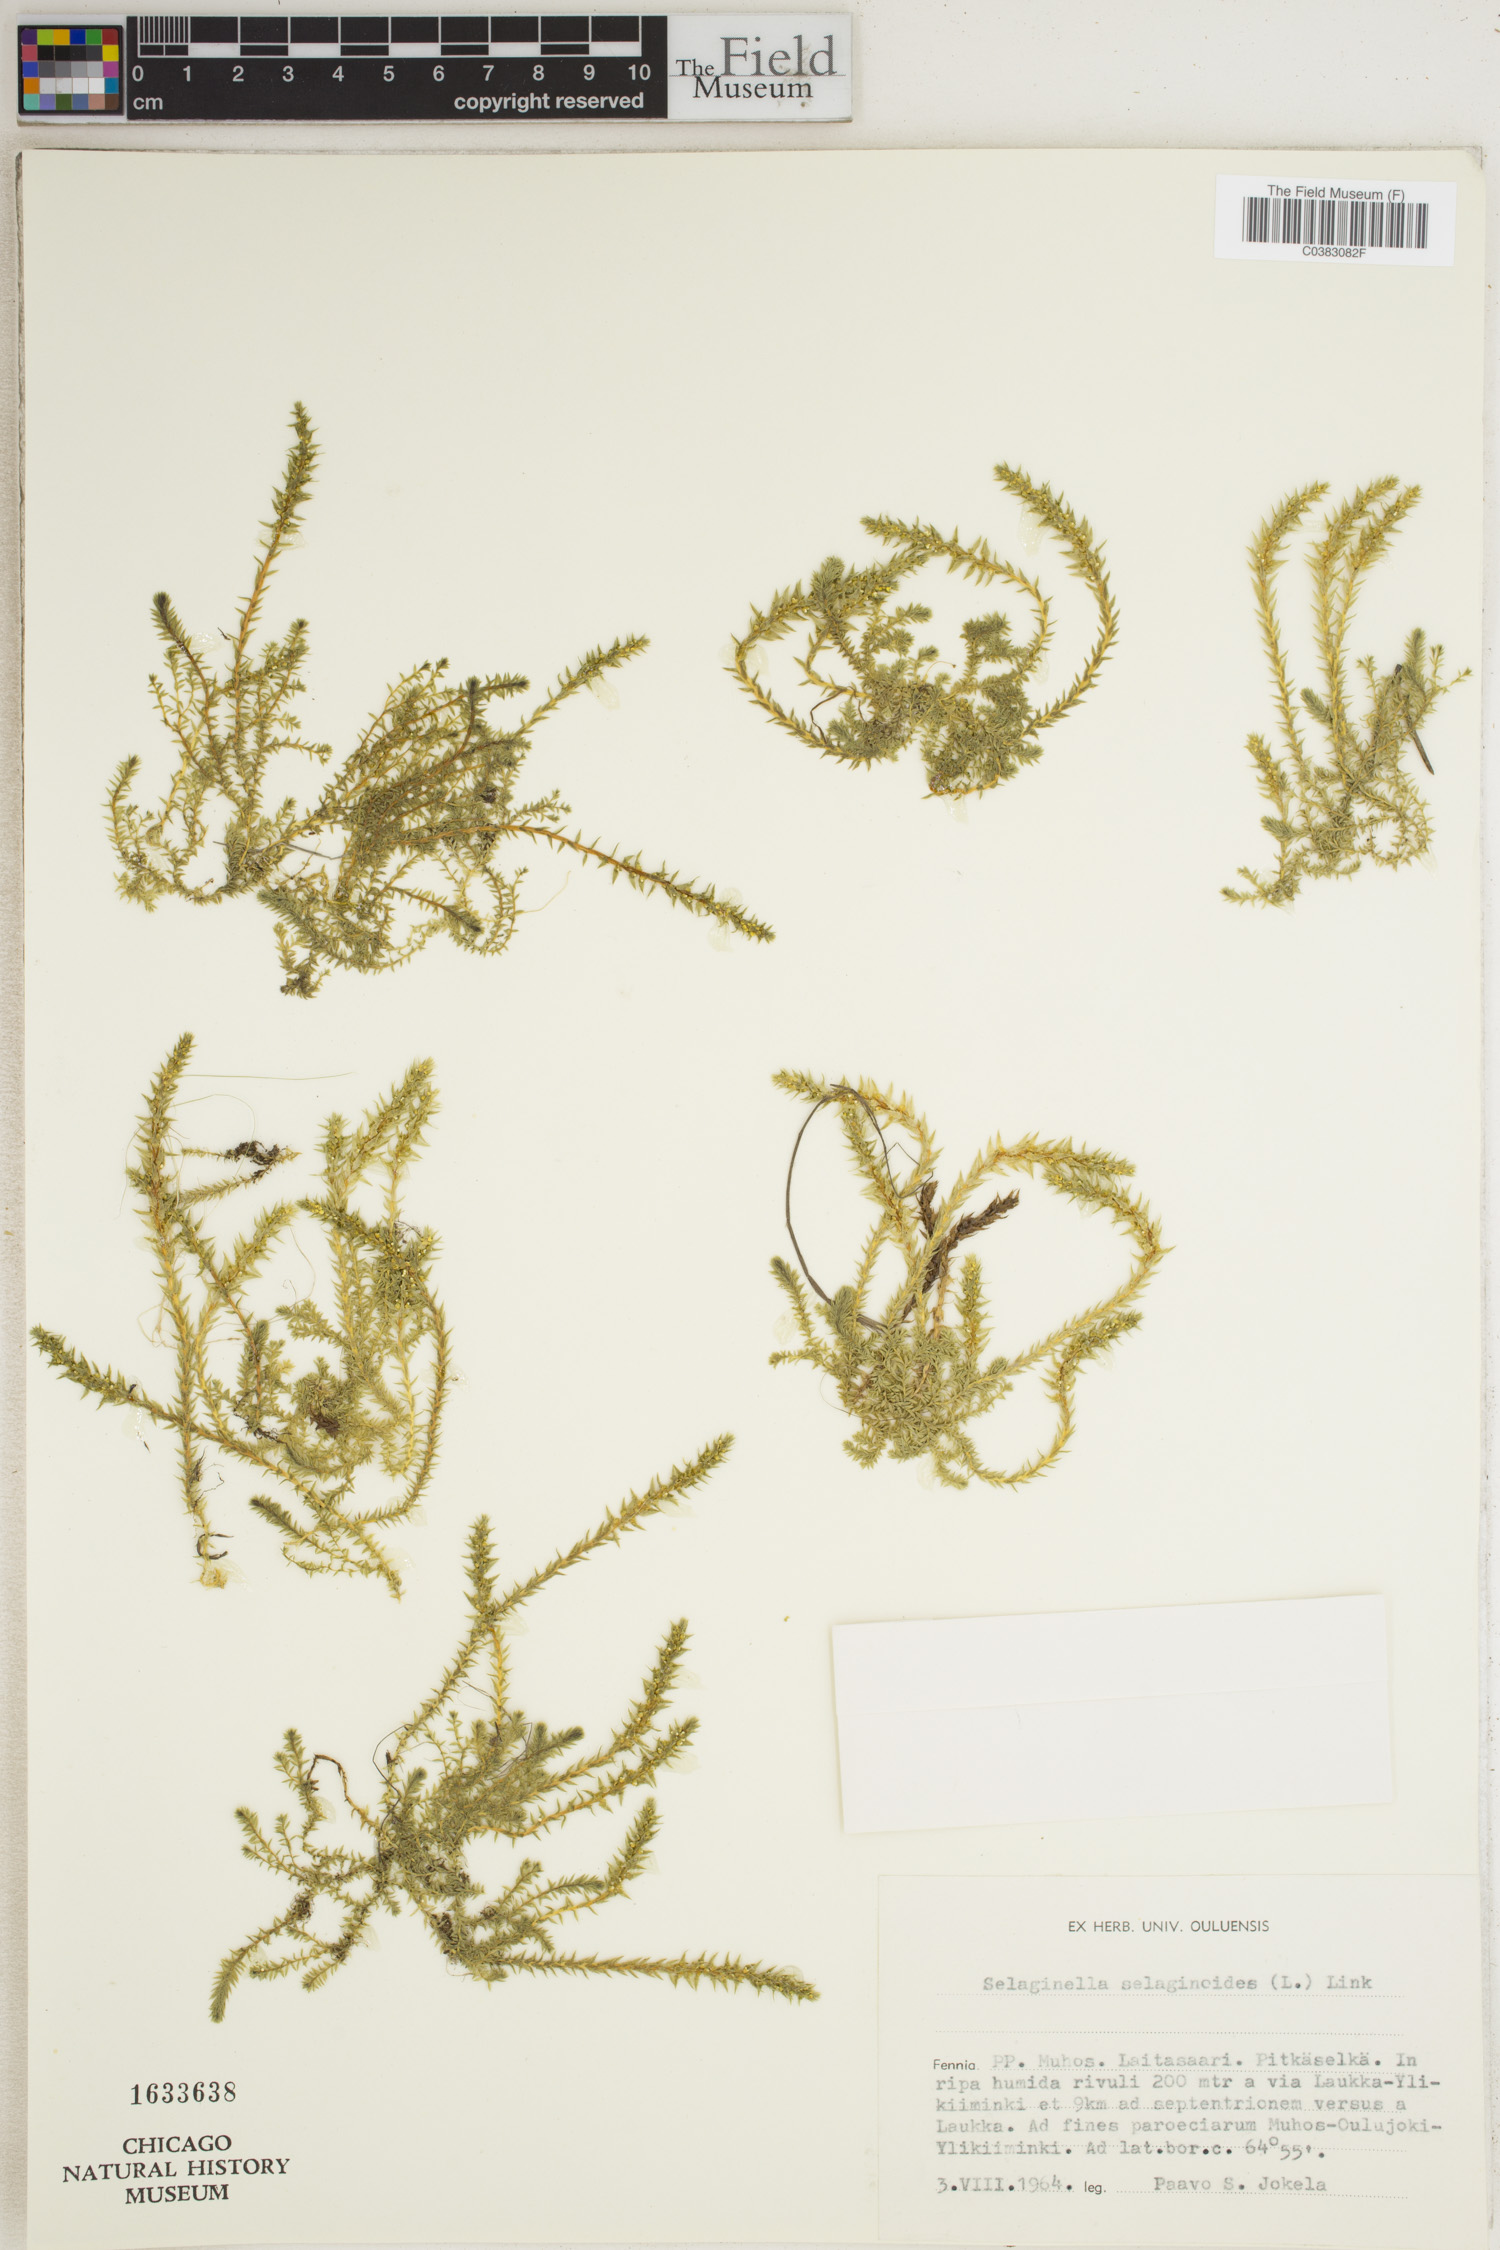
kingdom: Plantae
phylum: Tracheophyta
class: Lycopodiopsida
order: Selaginellales
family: Selaginellaceae
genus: Selaginella
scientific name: Selaginella selaginoides
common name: Prickly mountain-moss
